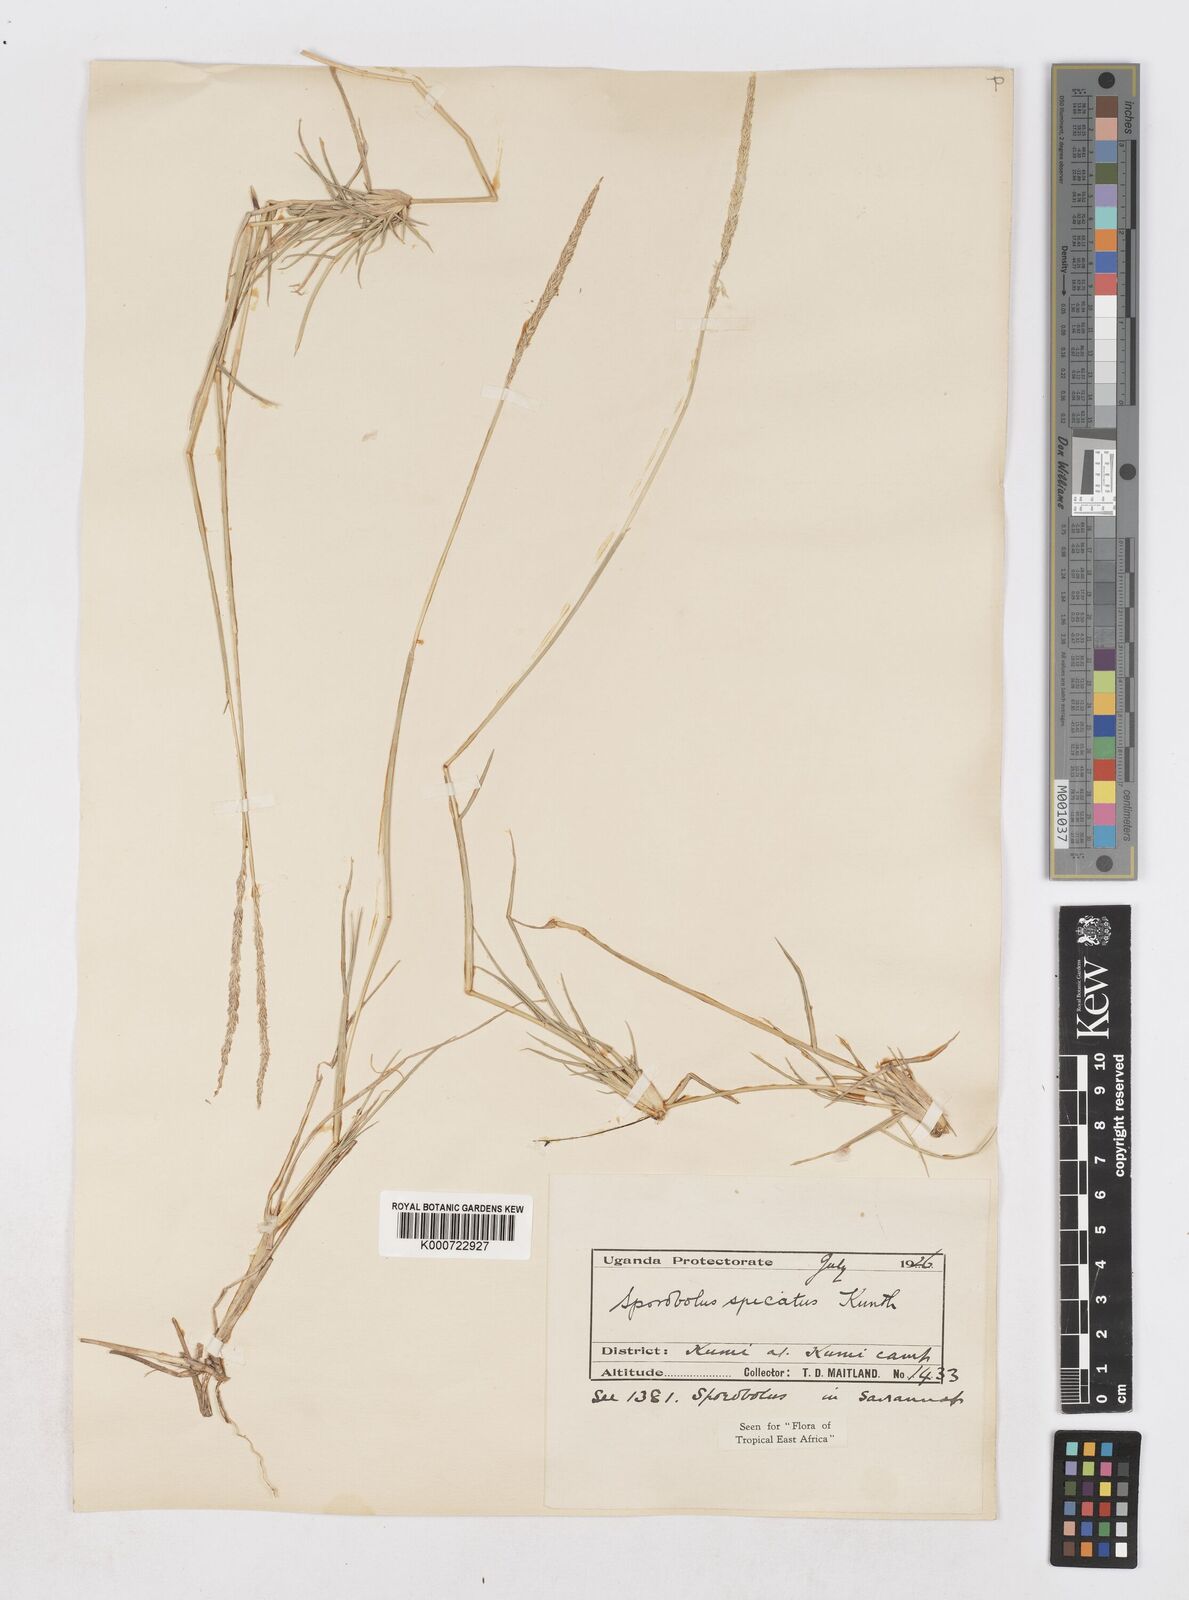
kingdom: Plantae
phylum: Tracheophyta
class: Liliopsida
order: Poales
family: Poaceae
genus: Sporobolus
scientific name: Sporobolus spicatus
